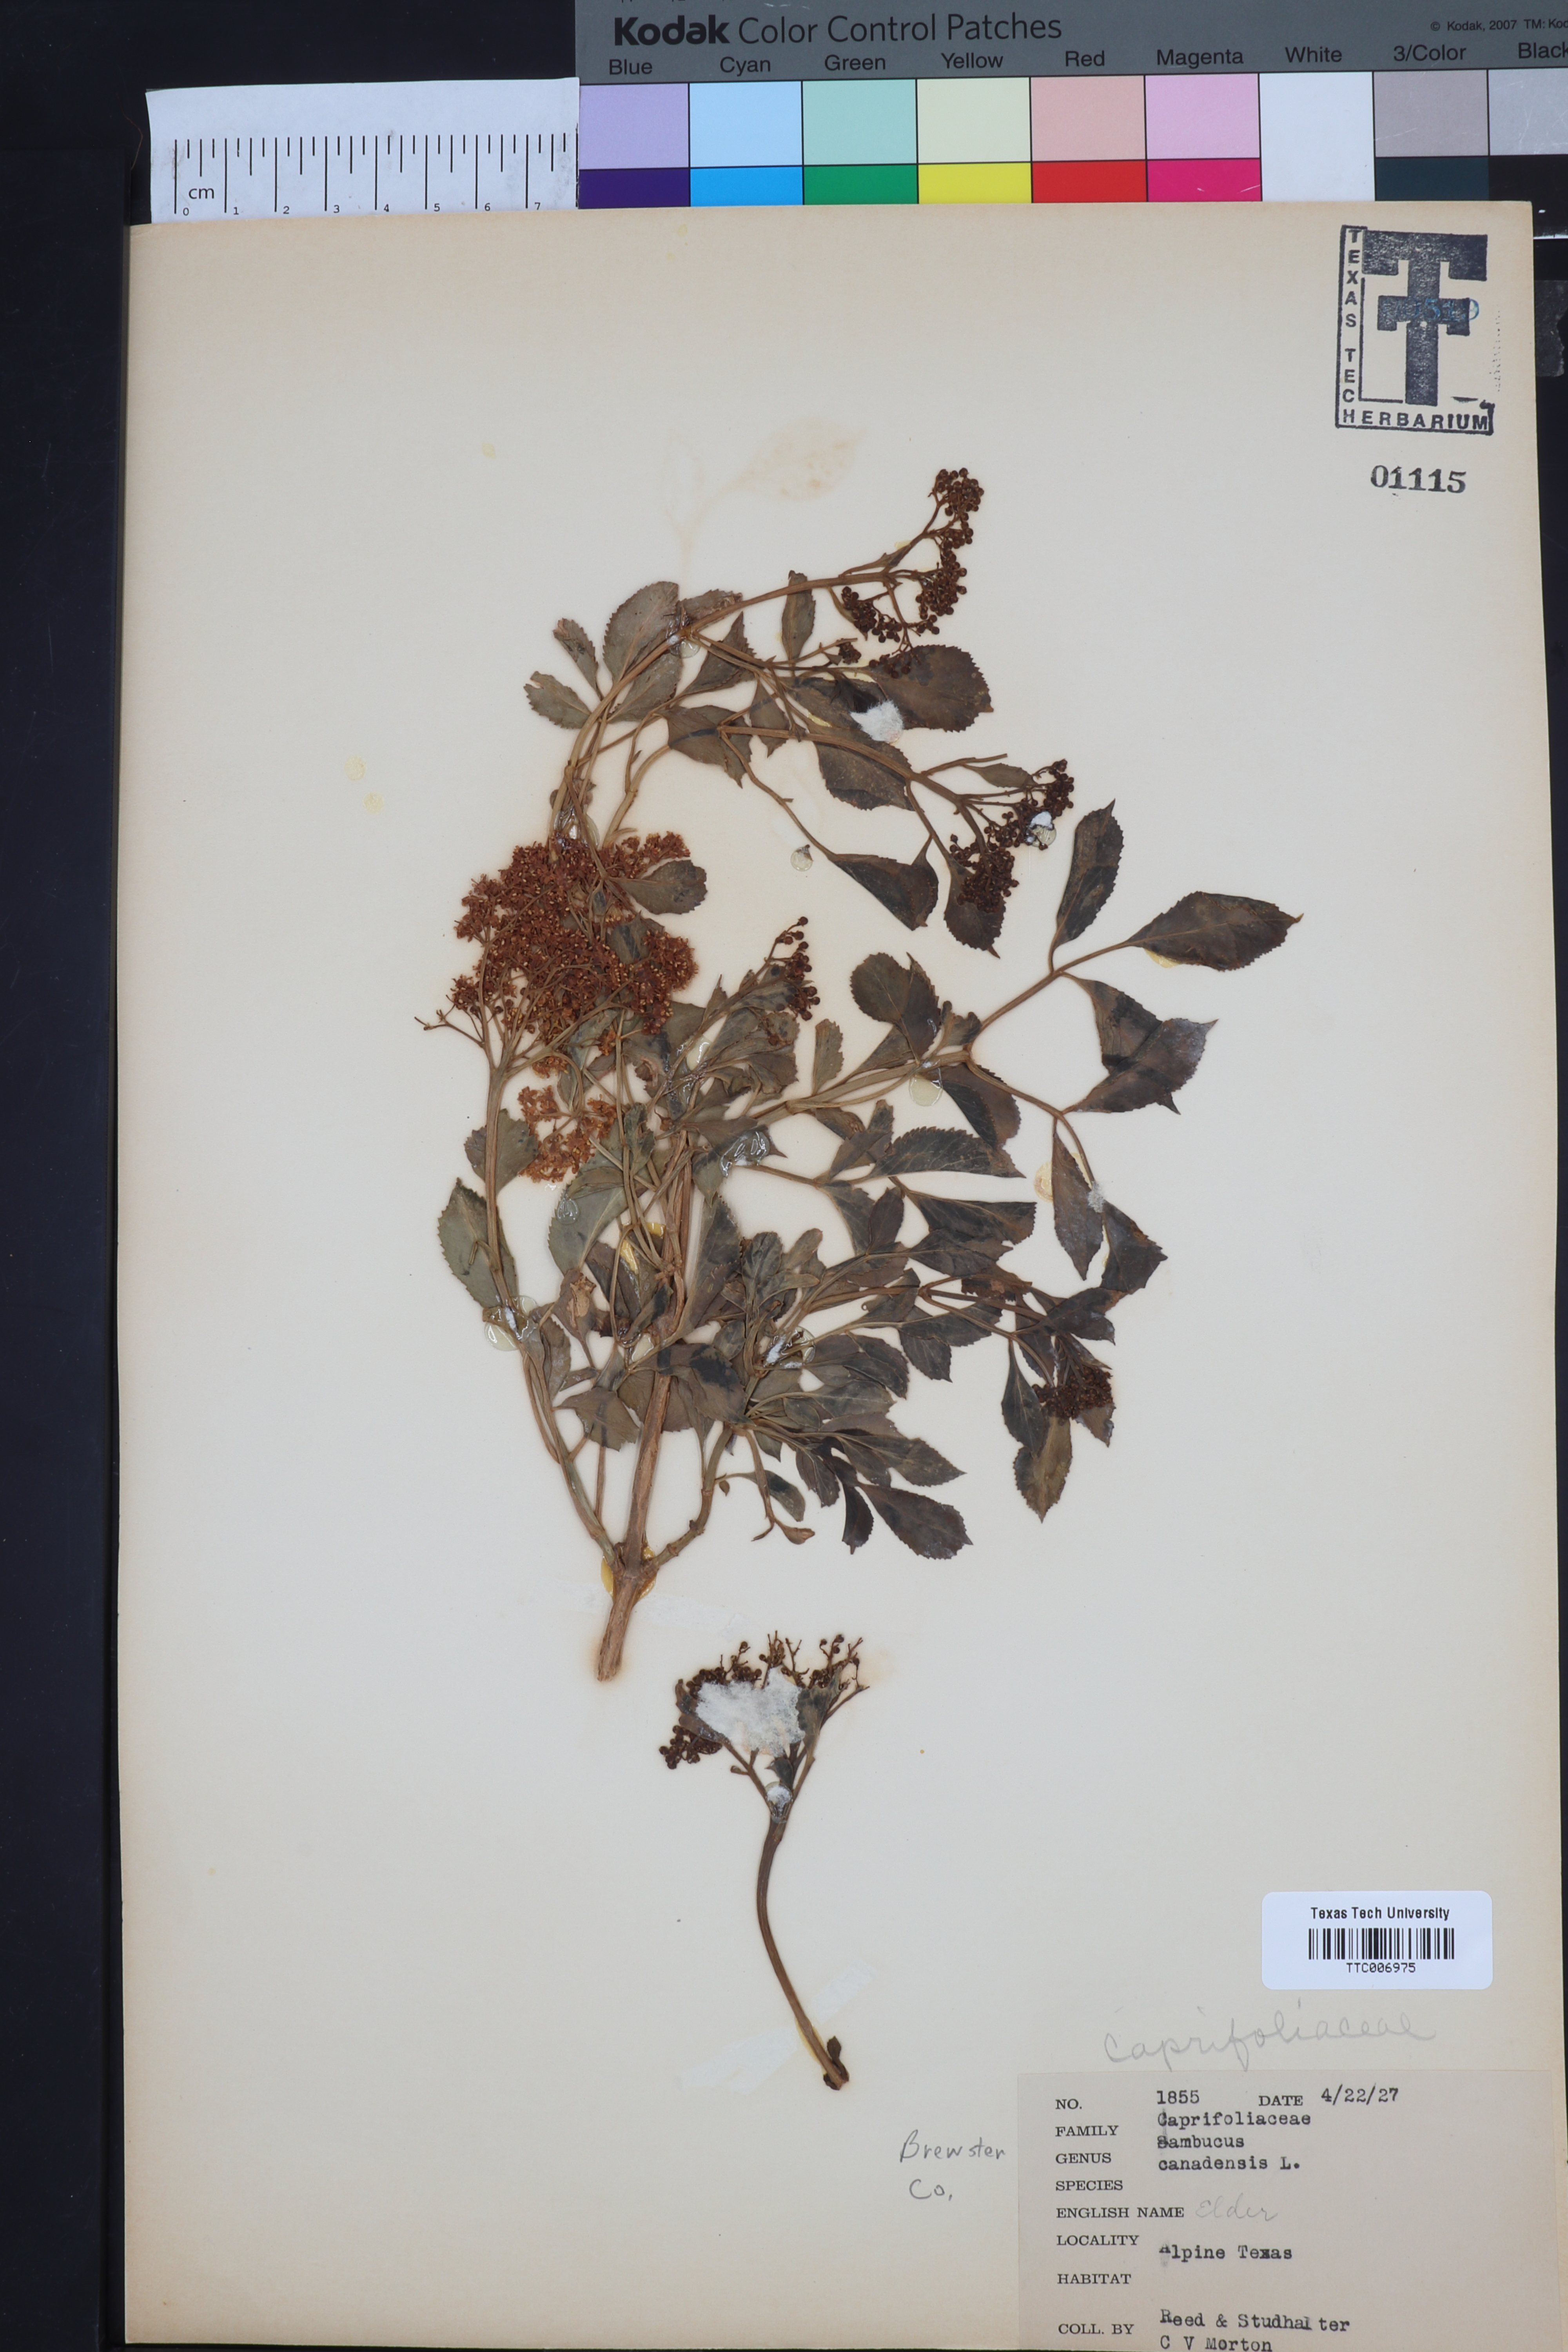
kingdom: Plantae
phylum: Tracheophyta
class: Magnoliopsida
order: Dipsacales
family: Viburnaceae
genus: Sambucus
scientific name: Sambucus canadensis
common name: American elder
